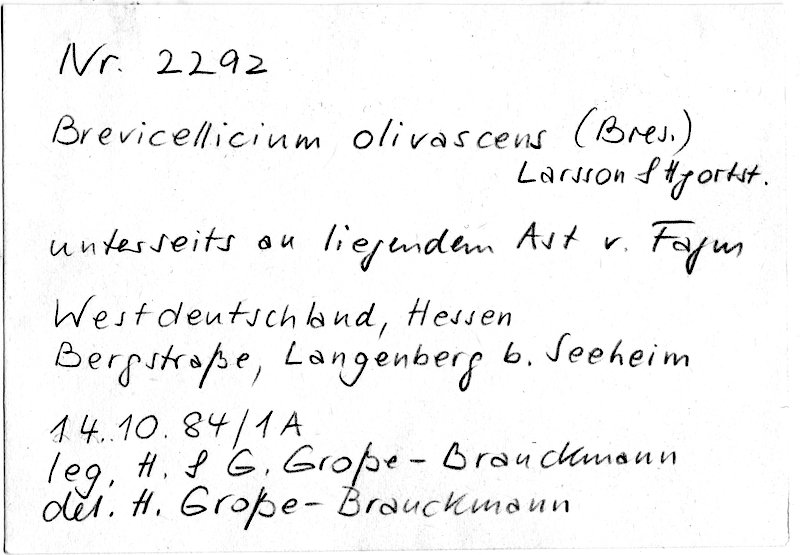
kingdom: Plantae
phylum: Tracheophyta
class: Magnoliopsida
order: Fagales
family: Fagaceae
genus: Fagus
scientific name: Fagus sylvatica
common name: Beech
